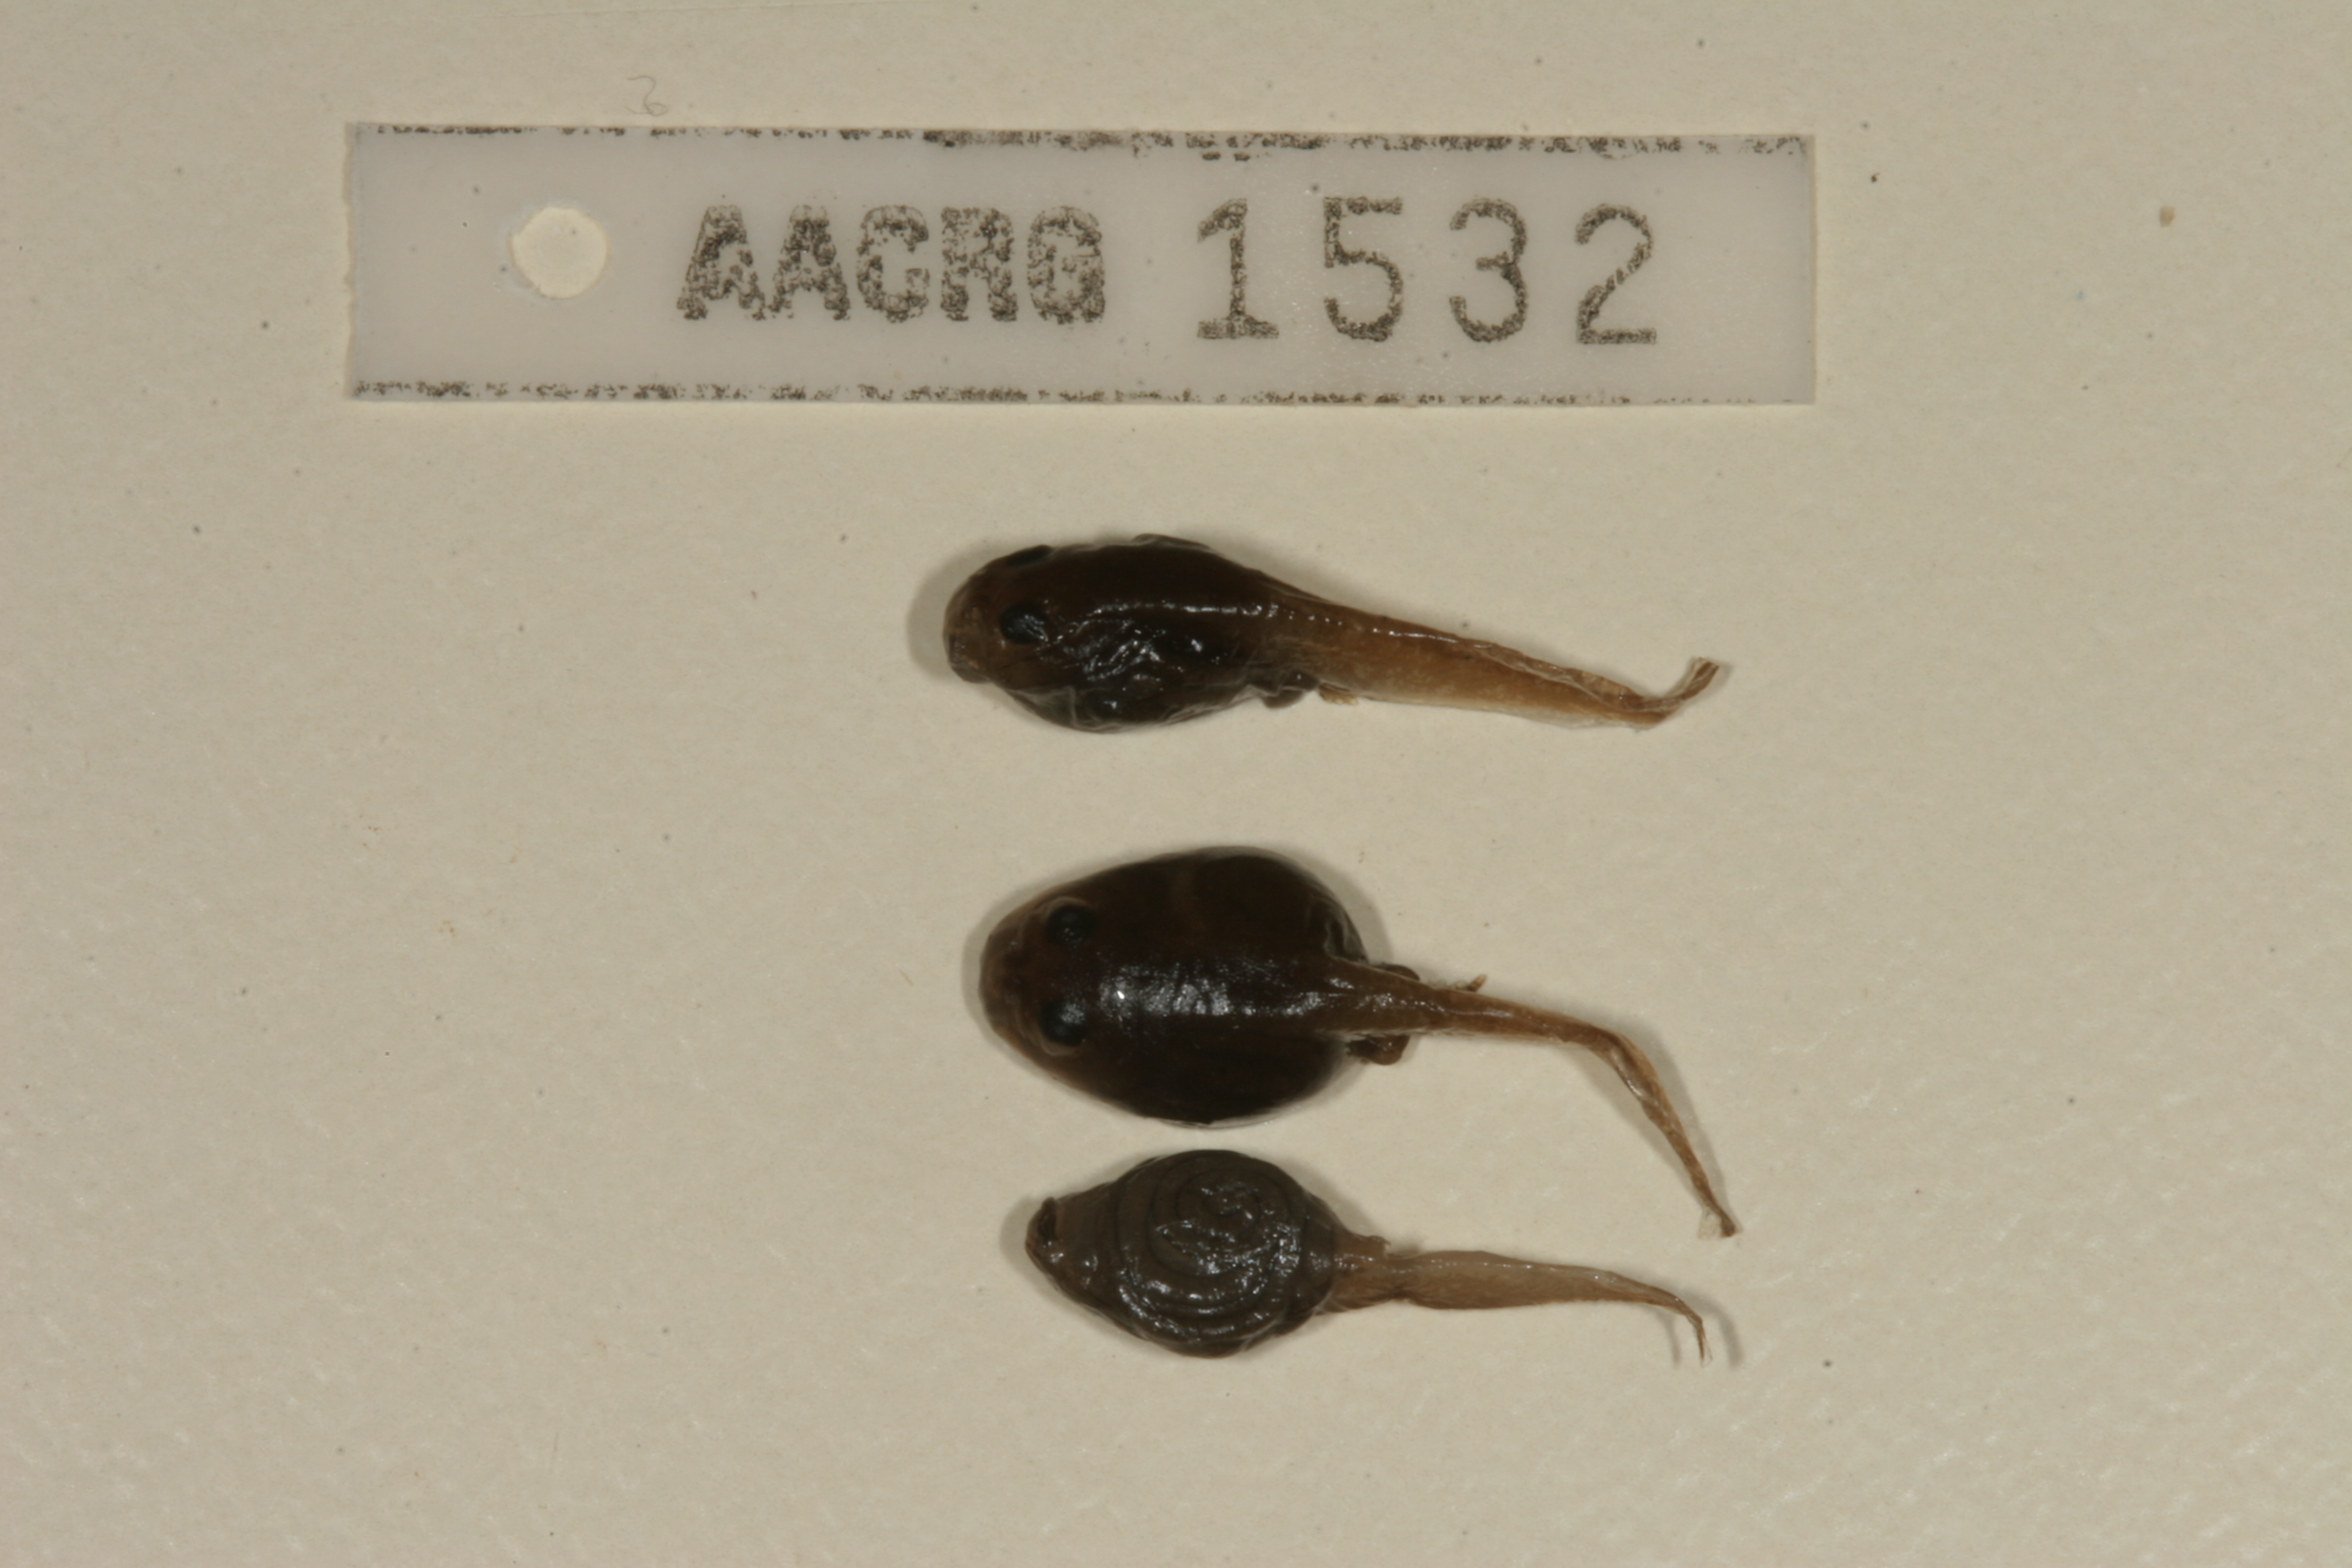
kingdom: Animalia
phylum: Chordata
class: Amphibia
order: Anura
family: Bufonidae
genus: Sclerophrys
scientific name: Sclerophrys gutturalis
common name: African common toad
